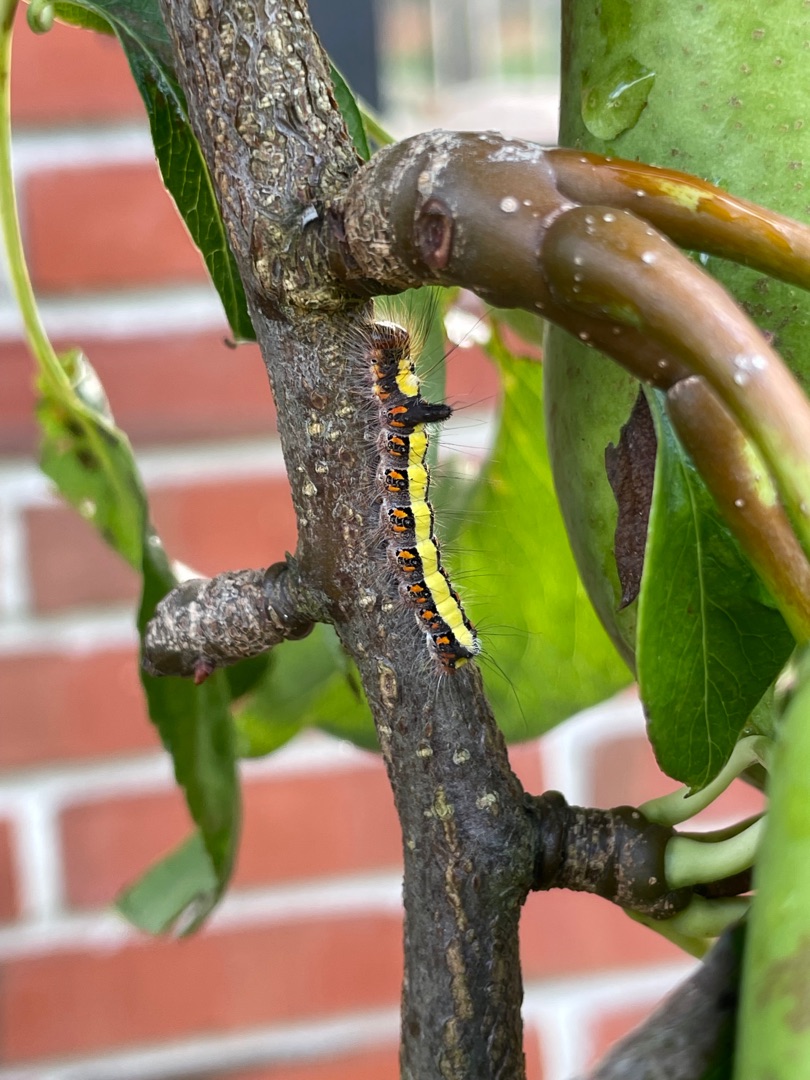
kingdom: Animalia
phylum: Arthropoda
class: Insecta
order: Lepidoptera
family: Noctuidae
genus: Acronicta
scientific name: Acronicta psi
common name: Psi-ugle
